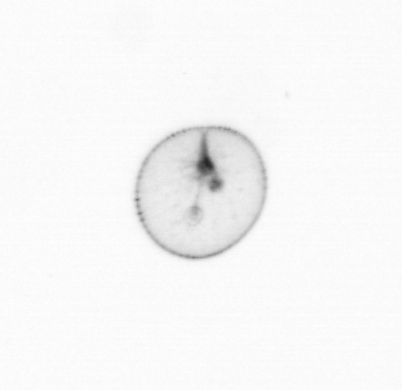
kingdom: Chromista
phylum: Myzozoa
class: Dinophyceae
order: Noctilucales
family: Noctilucaceae
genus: Noctiluca
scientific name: Noctiluca scintillans
